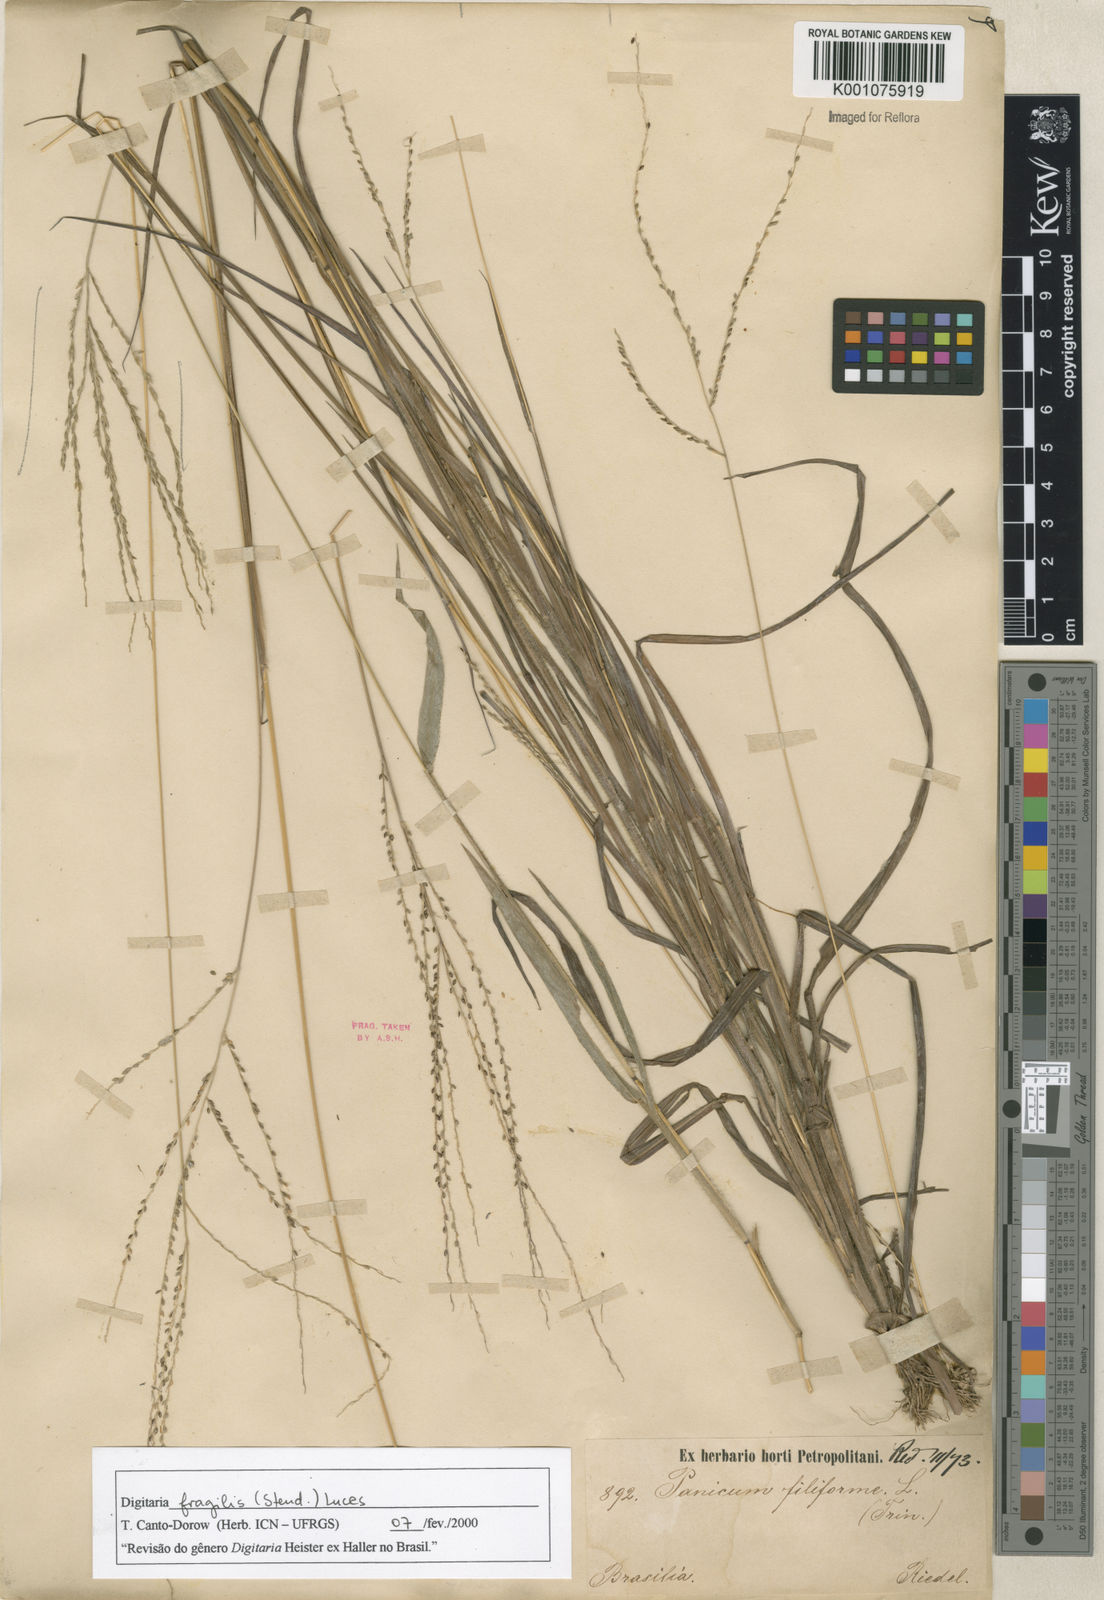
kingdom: Plantae
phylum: Tracheophyta
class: Liliopsida
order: Poales
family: Poaceae
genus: Digitaria
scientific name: Digitaria fragilis
